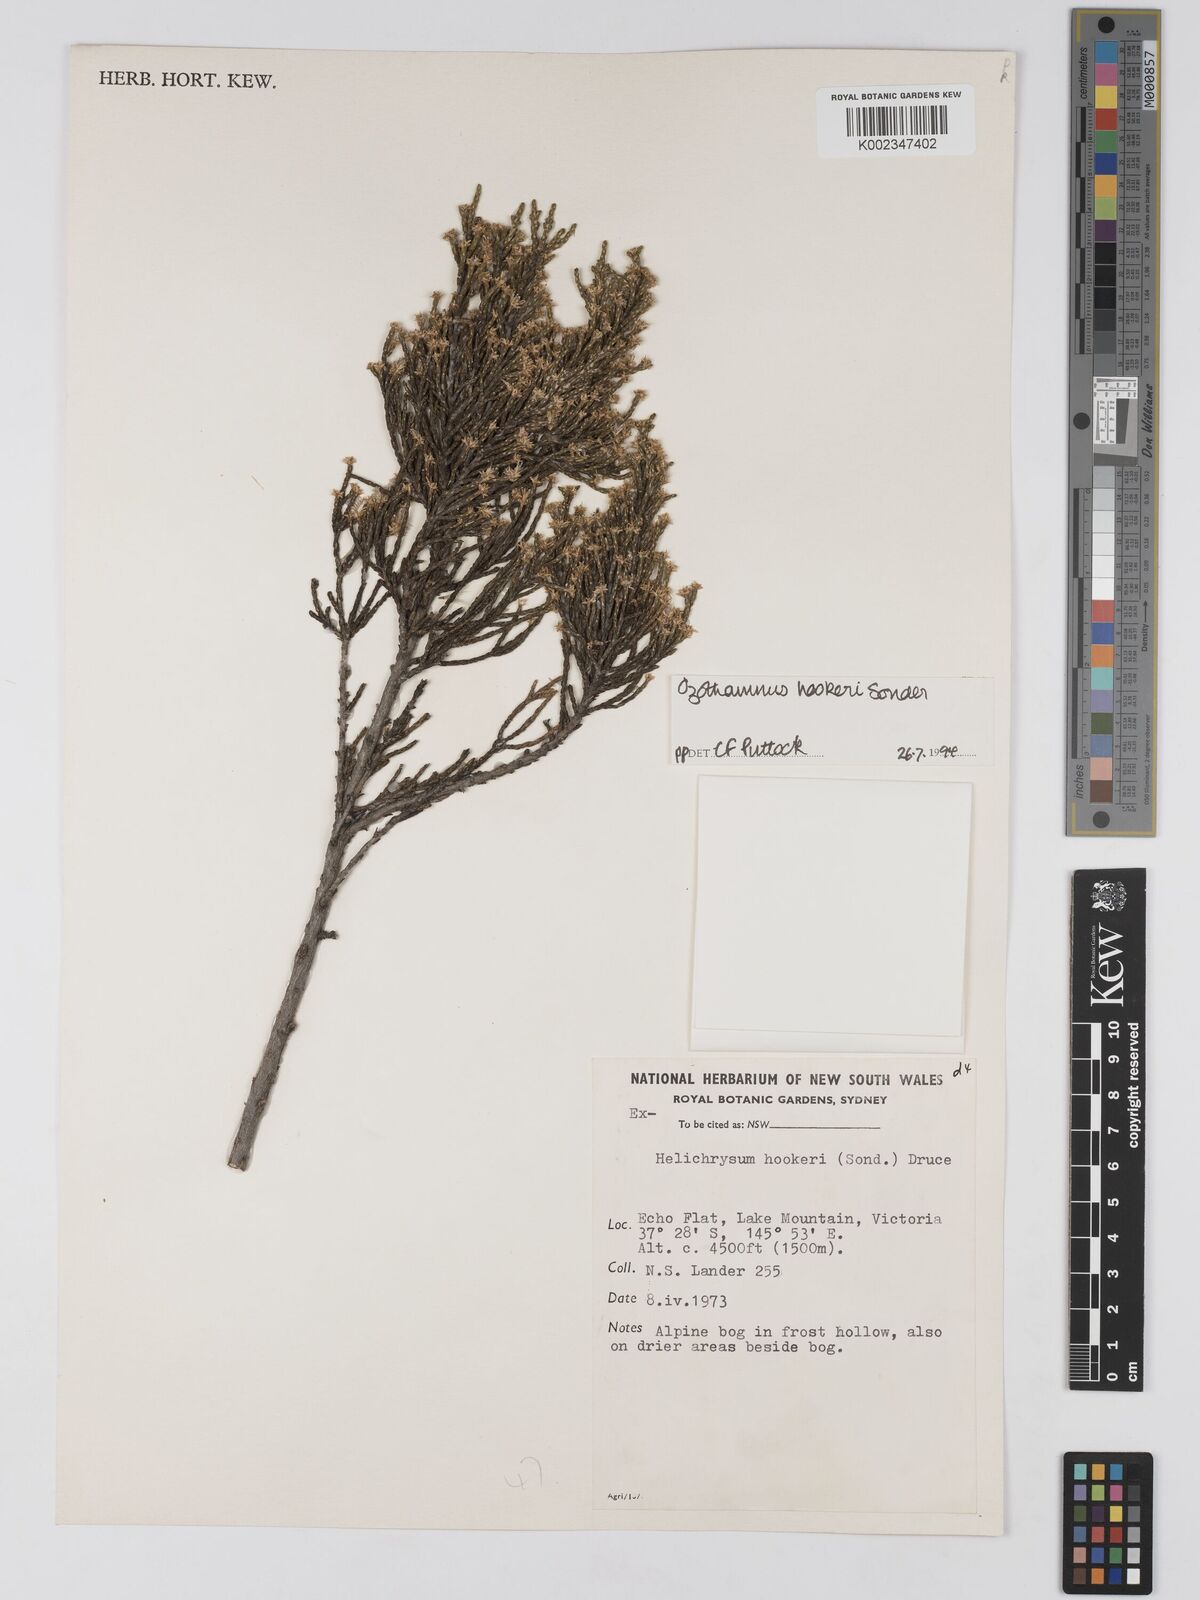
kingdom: Plantae
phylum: Tracheophyta
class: Magnoliopsida
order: Asterales
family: Asteraceae
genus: Ozothamnus
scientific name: Ozothamnus hookeri
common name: Kerosene-bush
